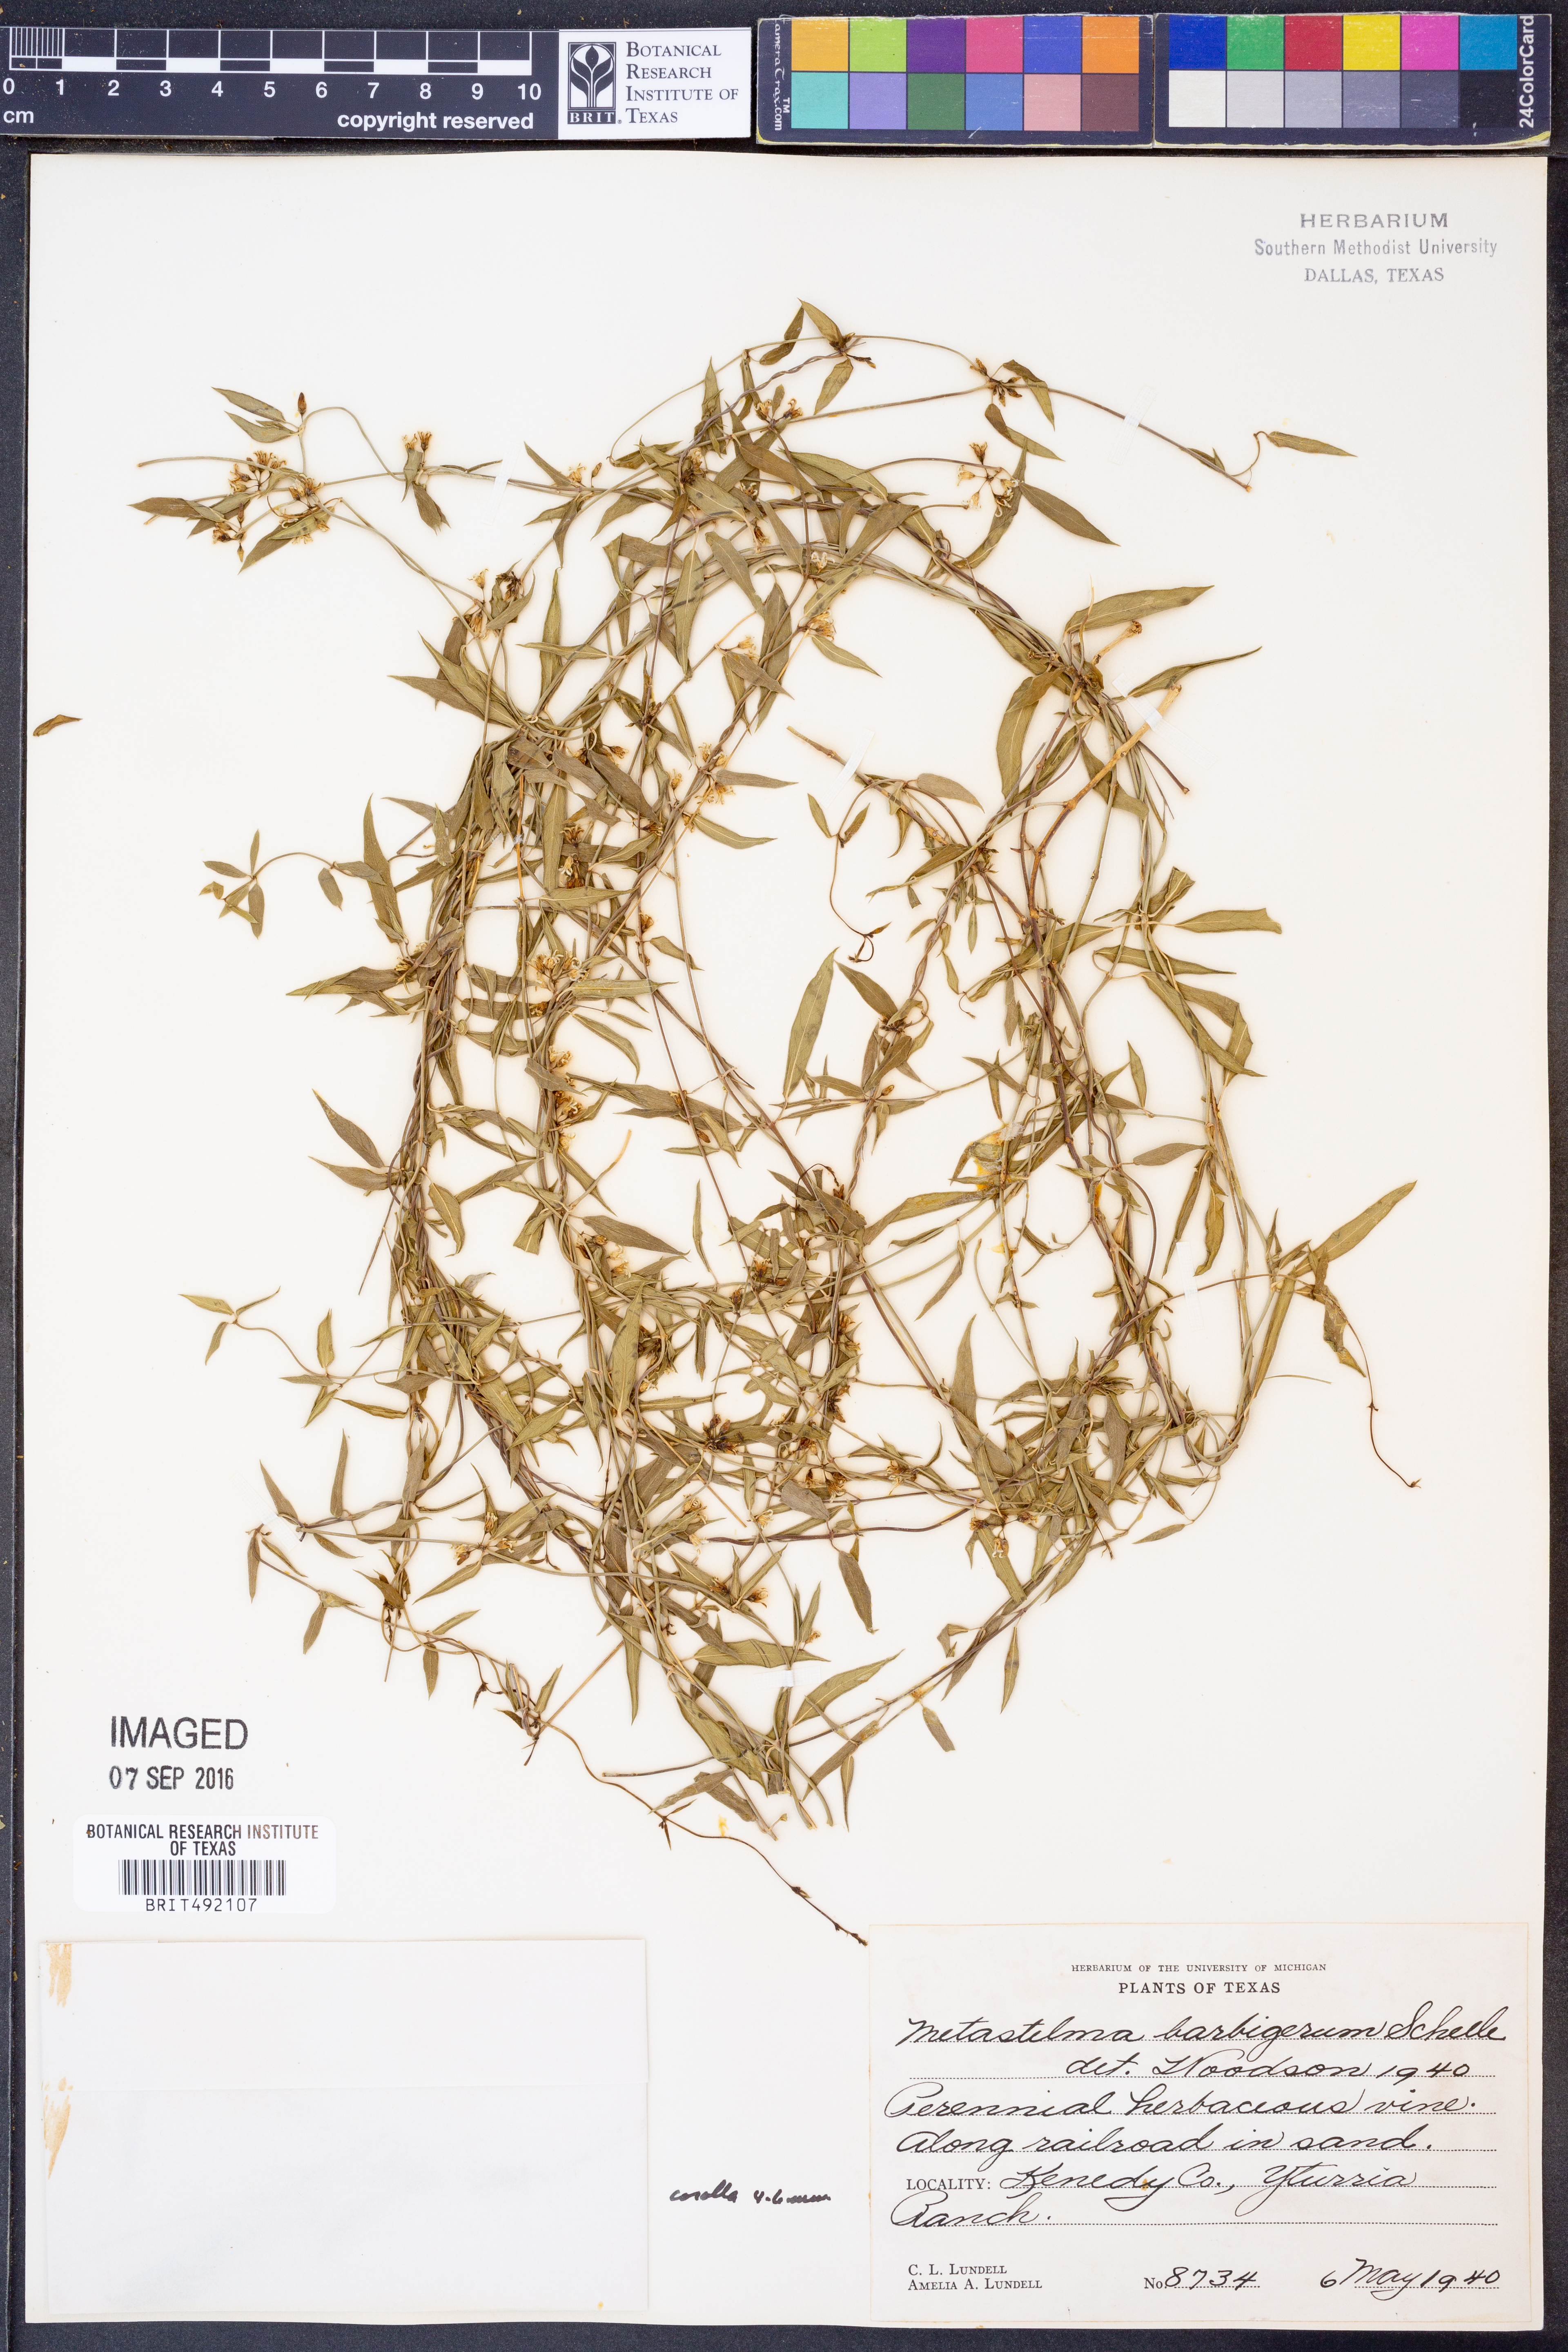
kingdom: Plantae
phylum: Tracheophyta
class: Magnoliopsida
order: Gentianales
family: Apocynaceae
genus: Metastelma
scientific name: Metastelma barbigerum
